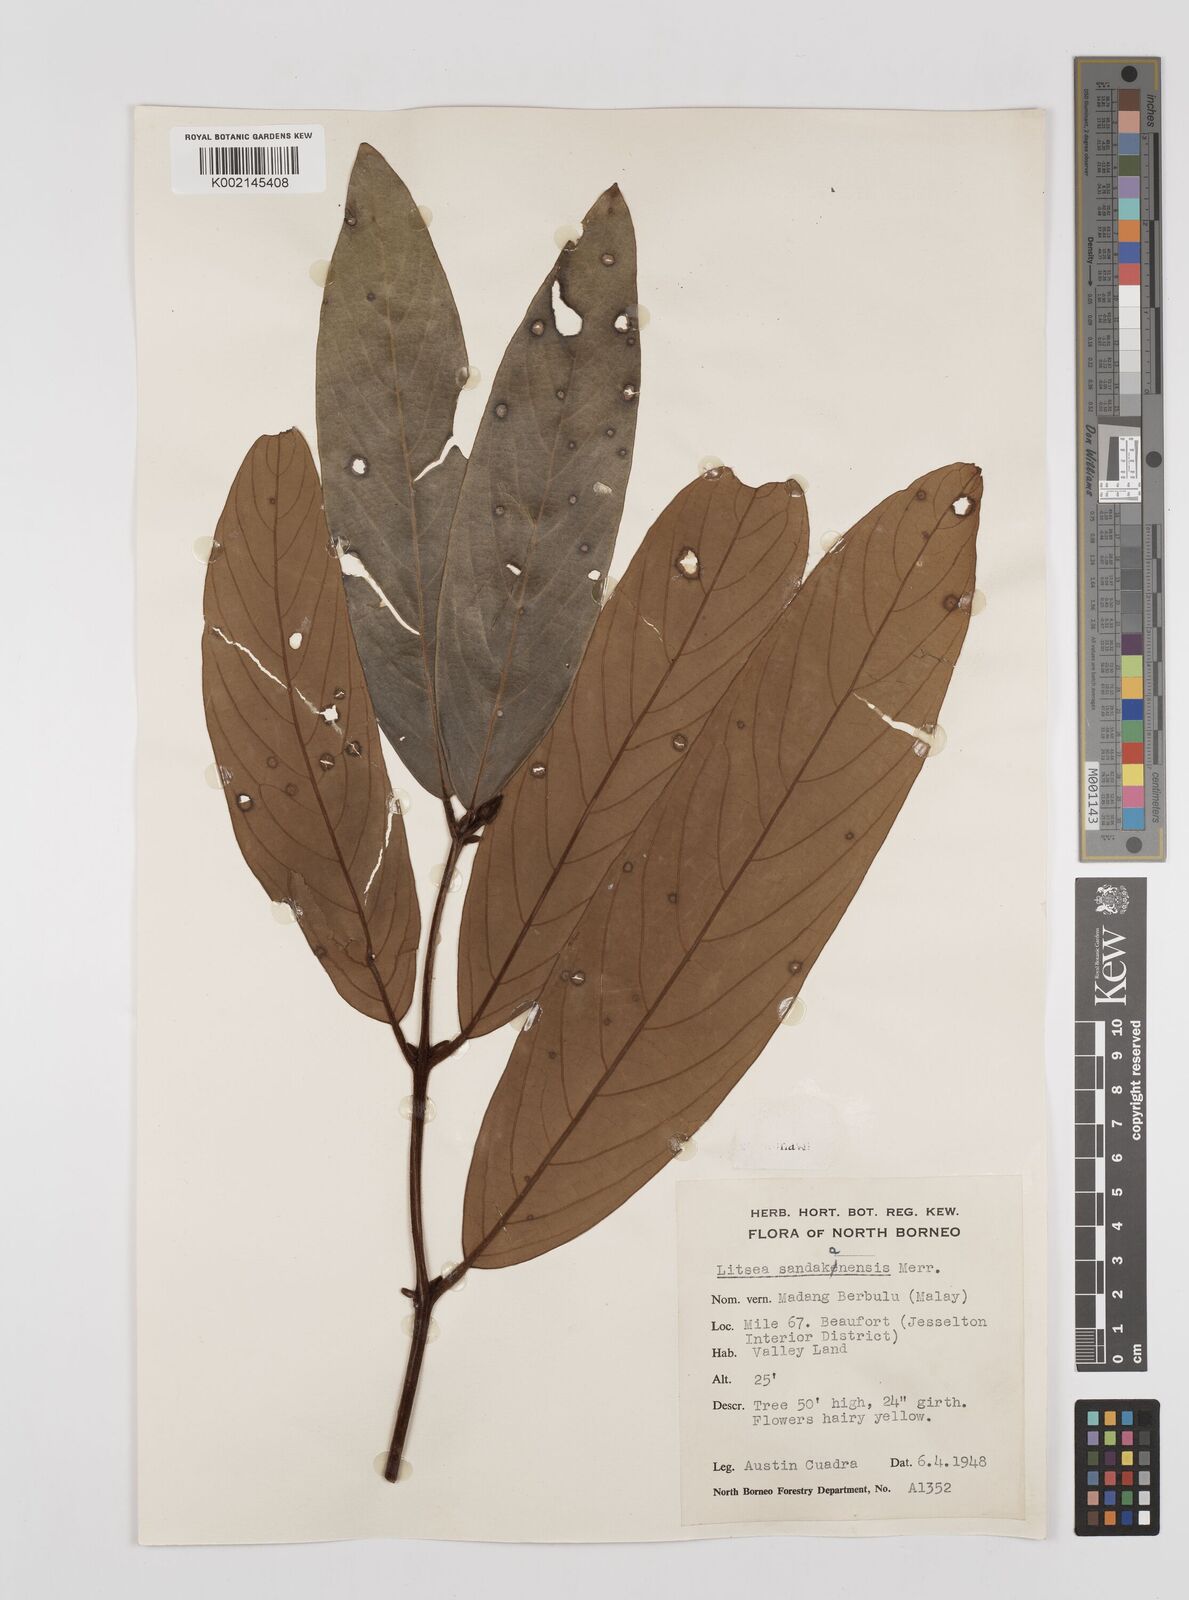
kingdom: Plantae
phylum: Tracheophyta
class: Magnoliopsida
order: Laurales
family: Lauraceae
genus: Litsea
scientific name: Litsea
